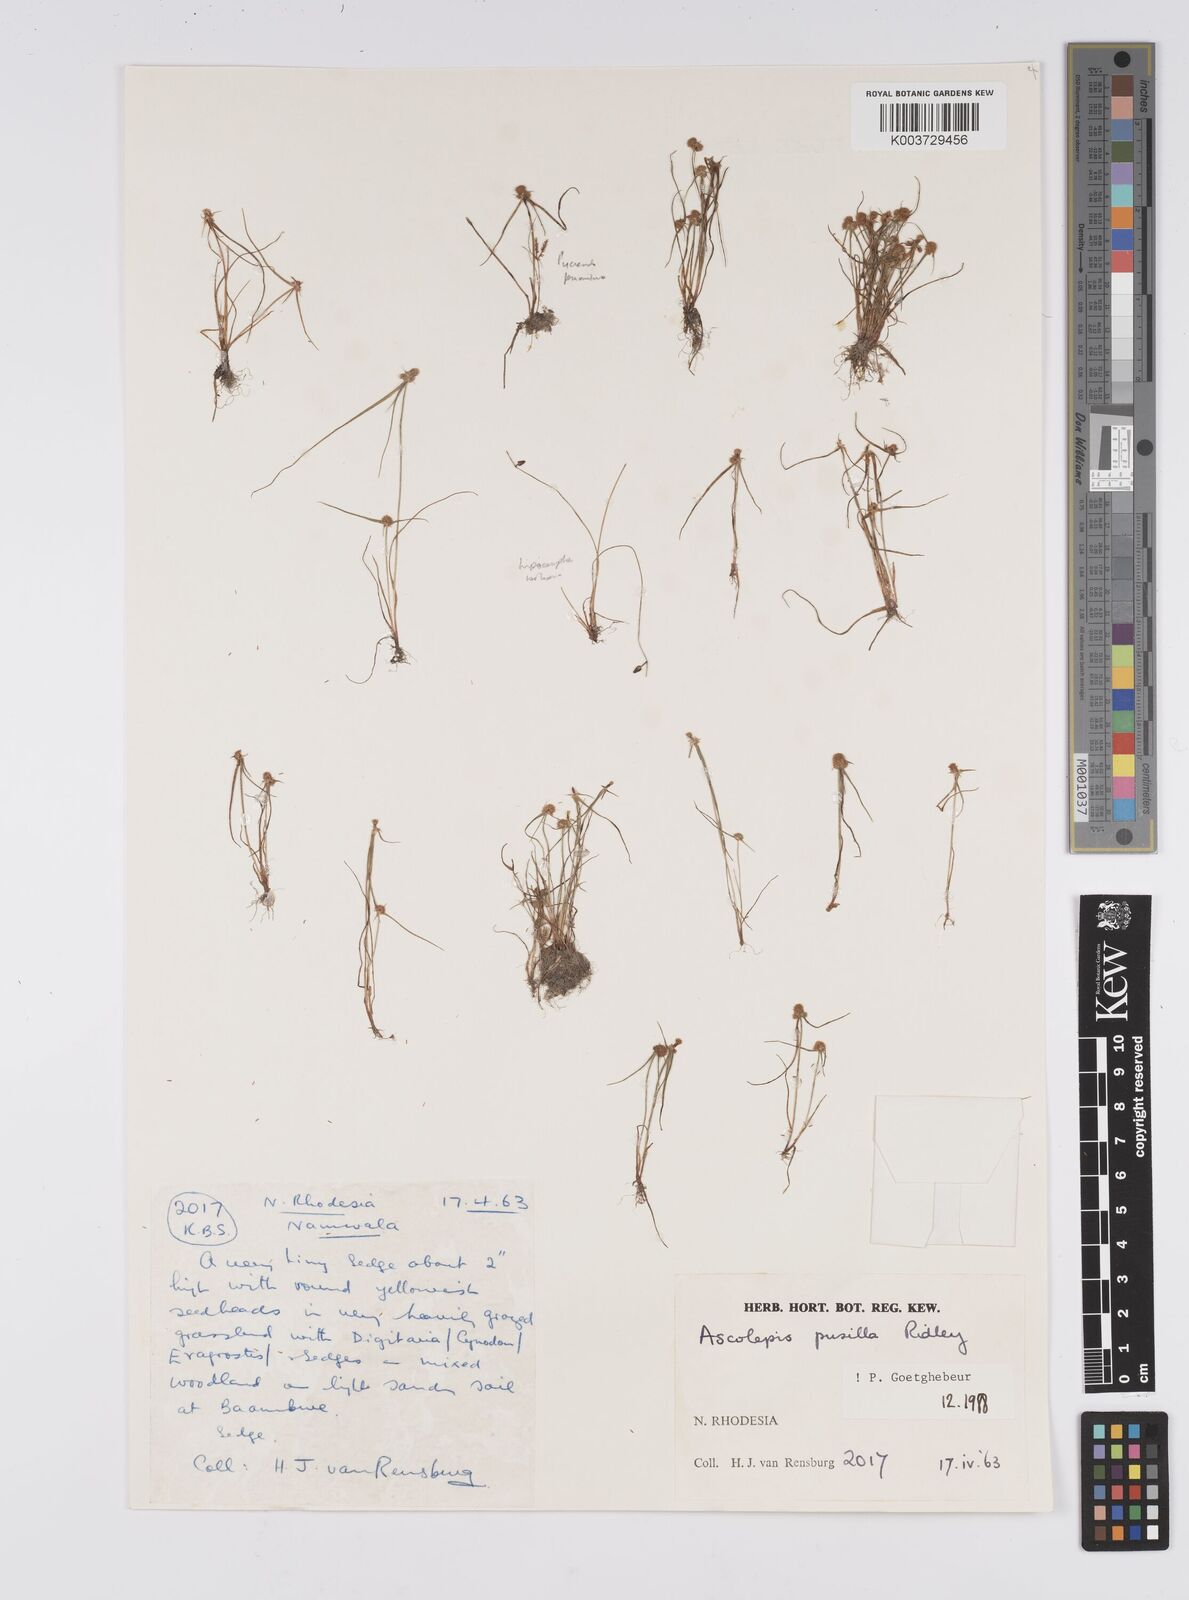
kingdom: Plantae
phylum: Tracheophyta
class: Liliopsida
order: Poales
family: Cyperaceae
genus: Cyperus
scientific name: Cyperus
